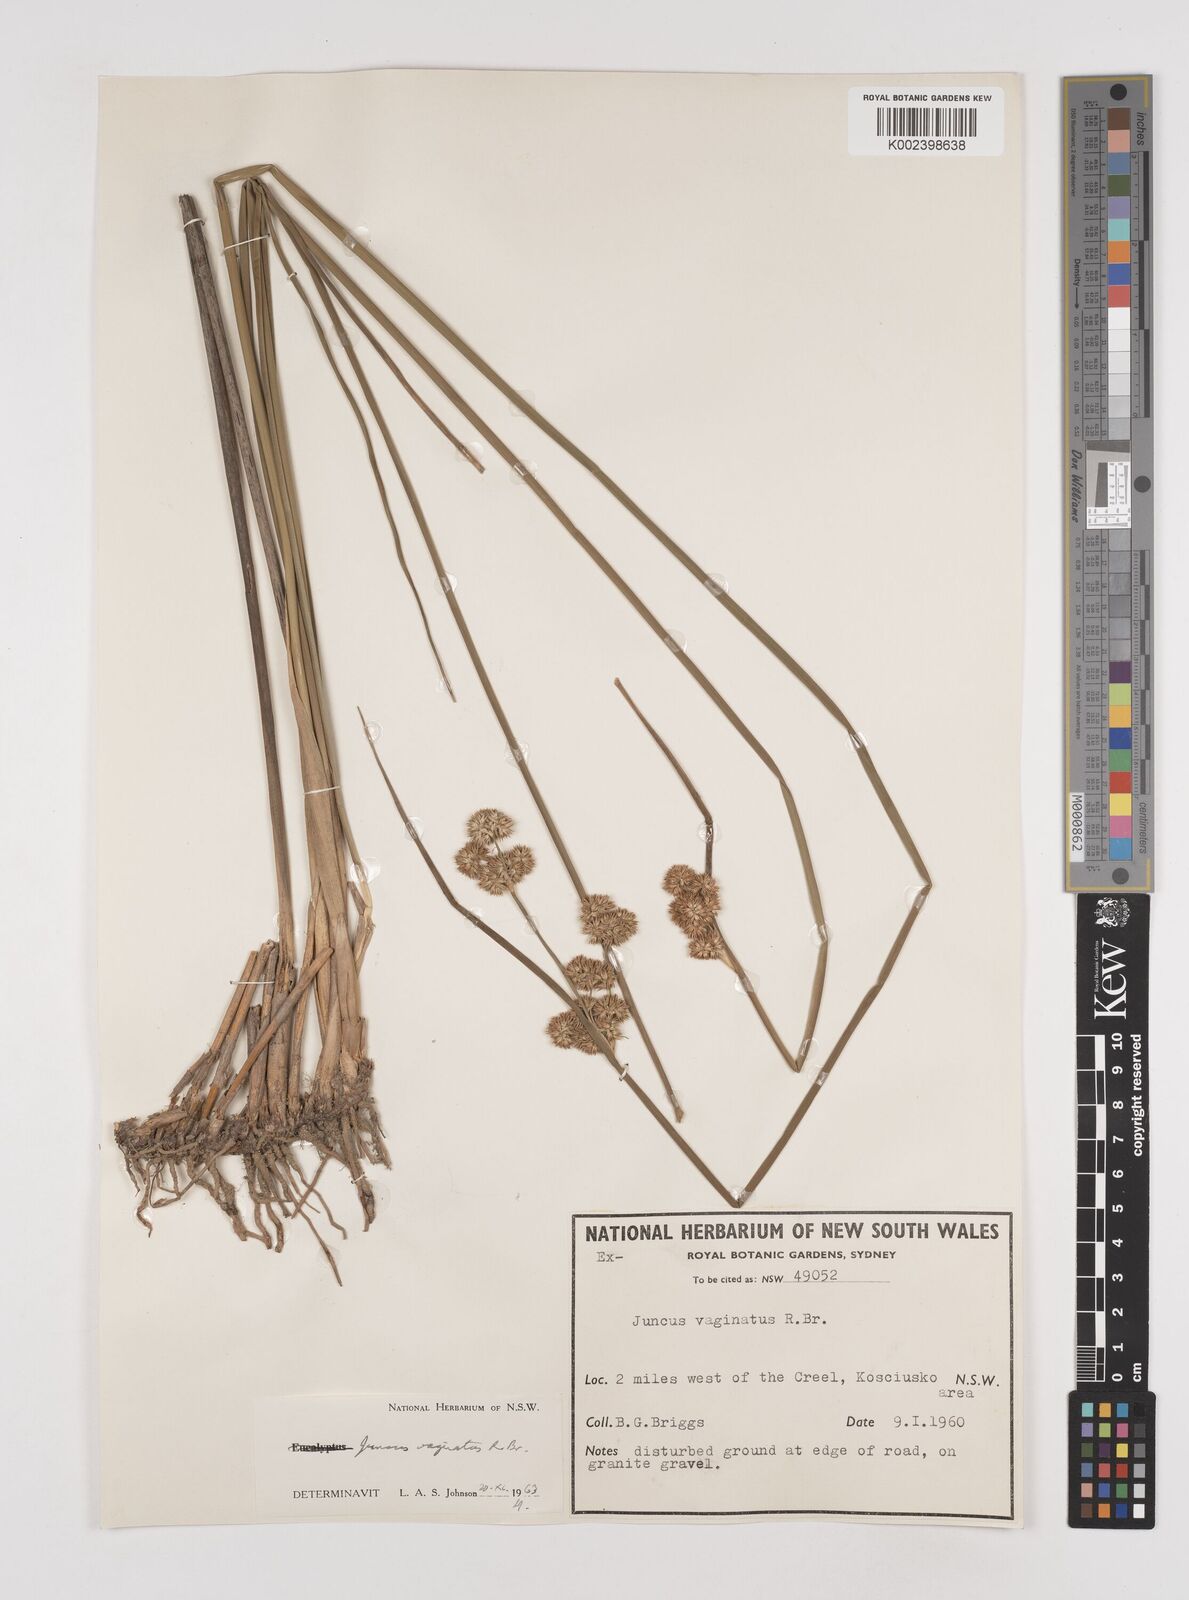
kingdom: Plantae
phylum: Tracheophyta
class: Liliopsida
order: Poales
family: Juncaceae
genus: Juncus
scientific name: Juncus vaginatus
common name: Clustered rush
